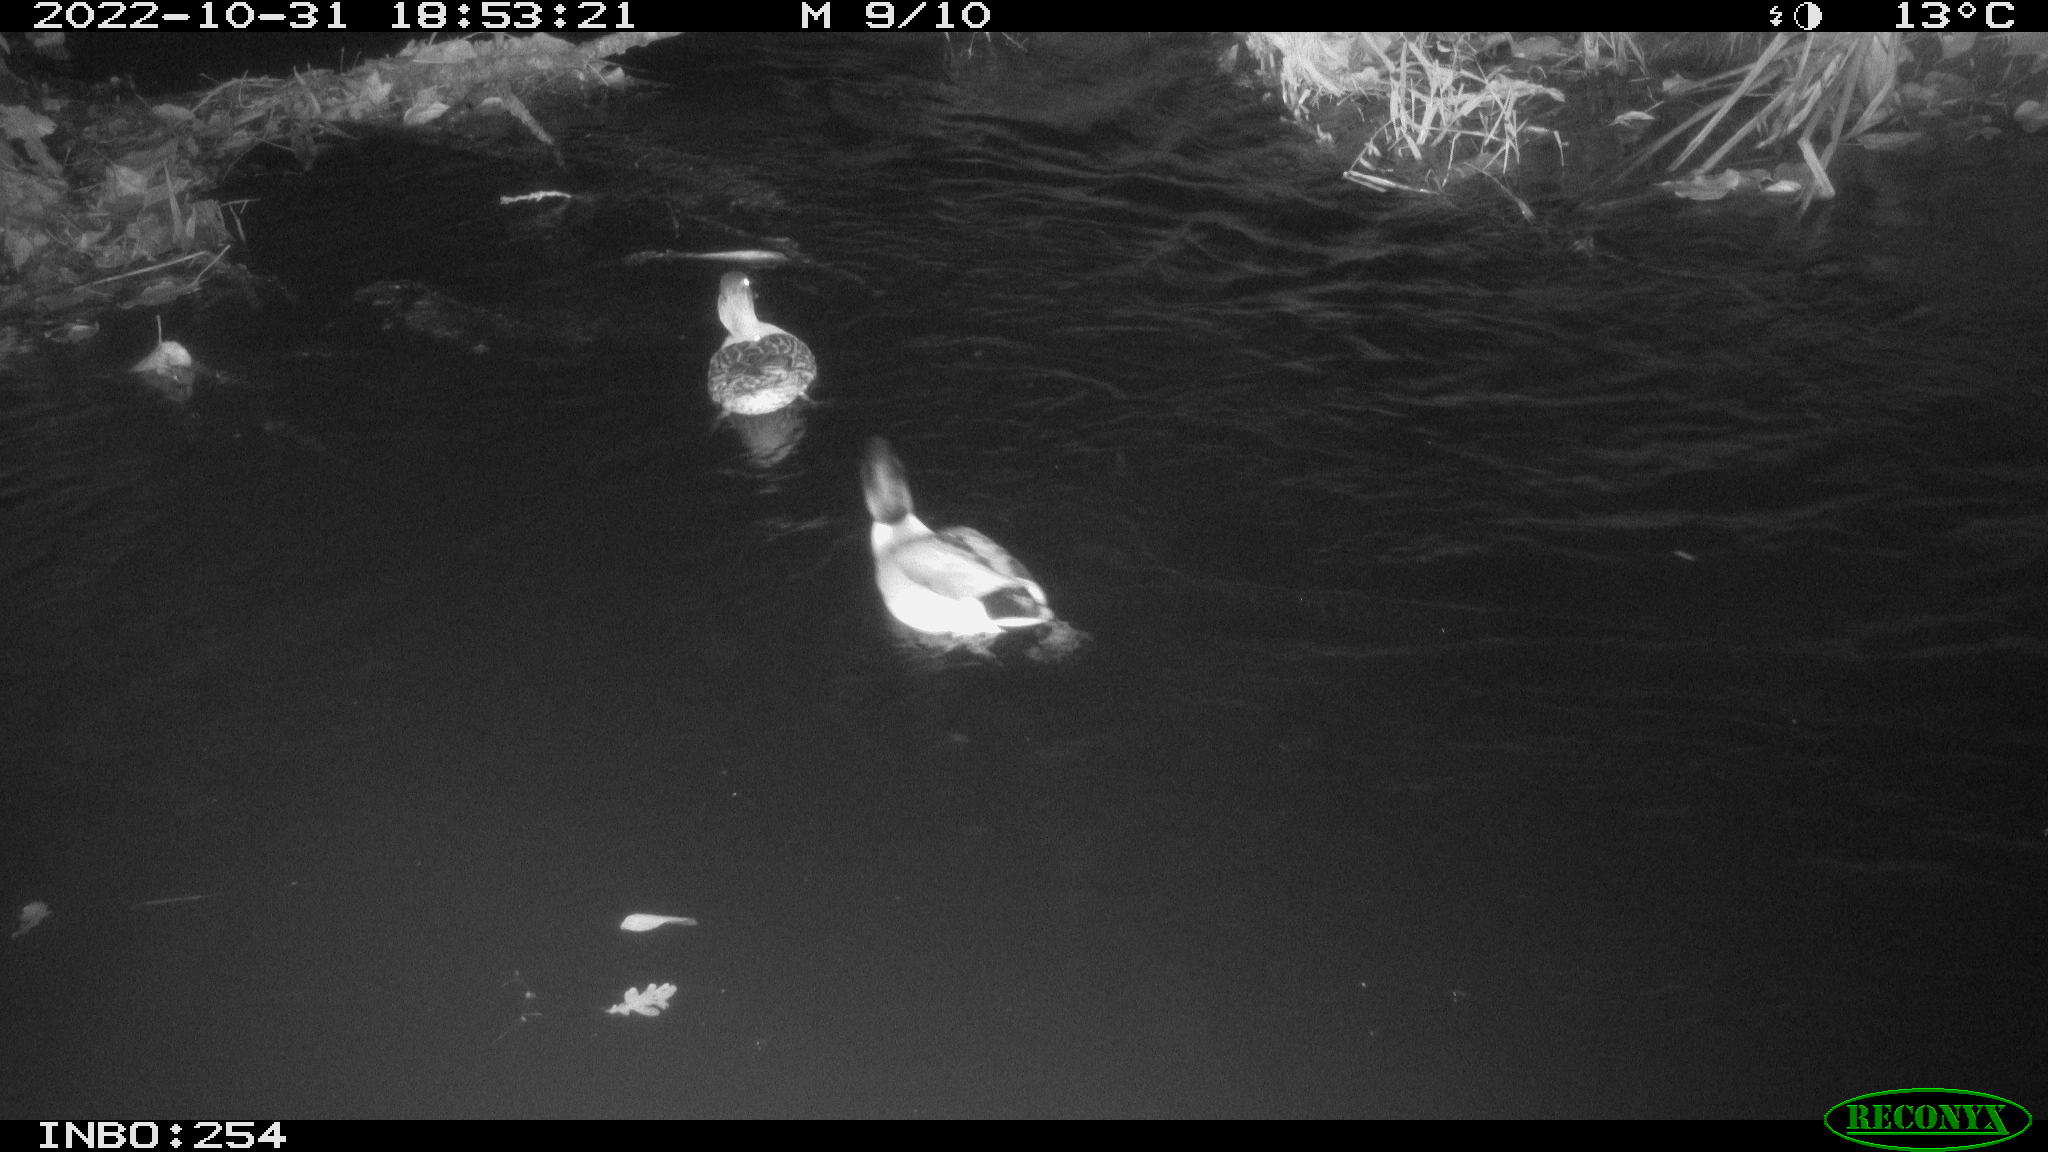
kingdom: Animalia
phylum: Chordata
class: Aves
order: Anseriformes
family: Anatidae
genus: Anas
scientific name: Anas
